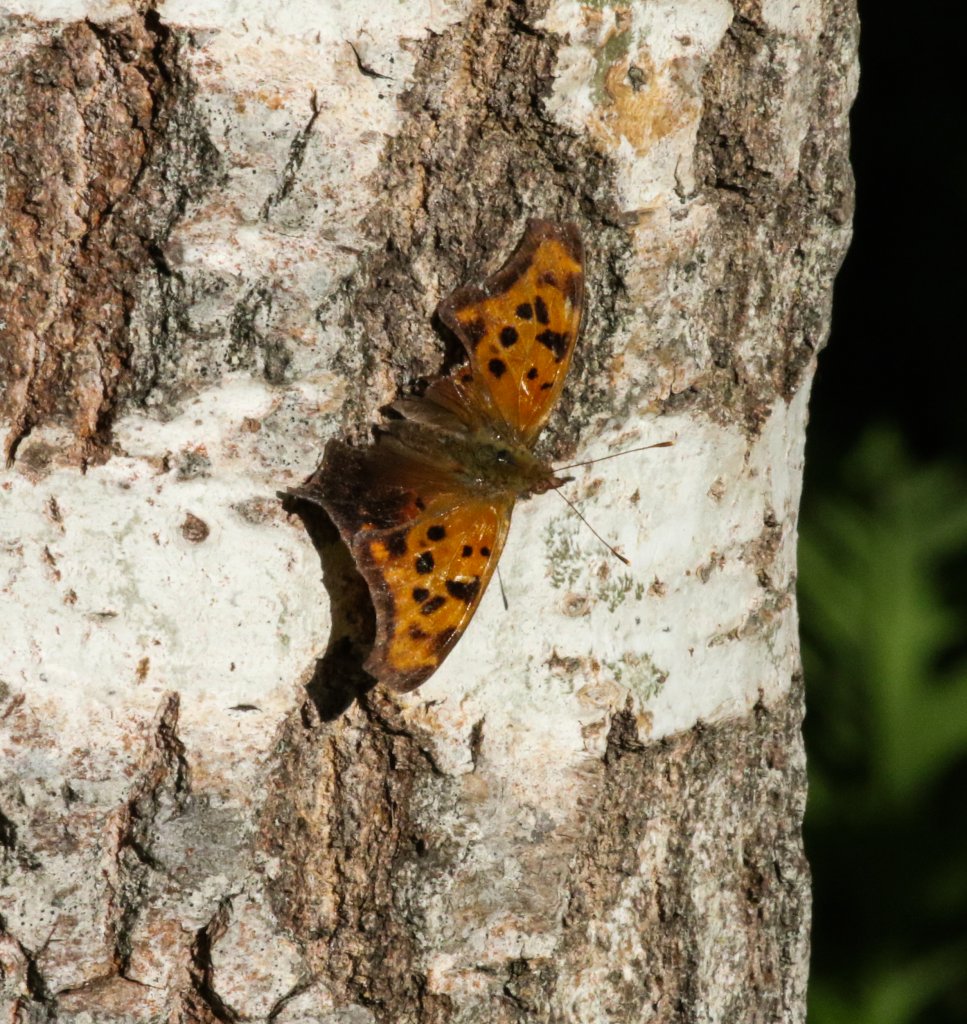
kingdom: Animalia
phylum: Arthropoda
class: Insecta
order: Lepidoptera
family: Nymphalidae
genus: Polygonia
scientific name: Polygonia interrogationis
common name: Question Mark
